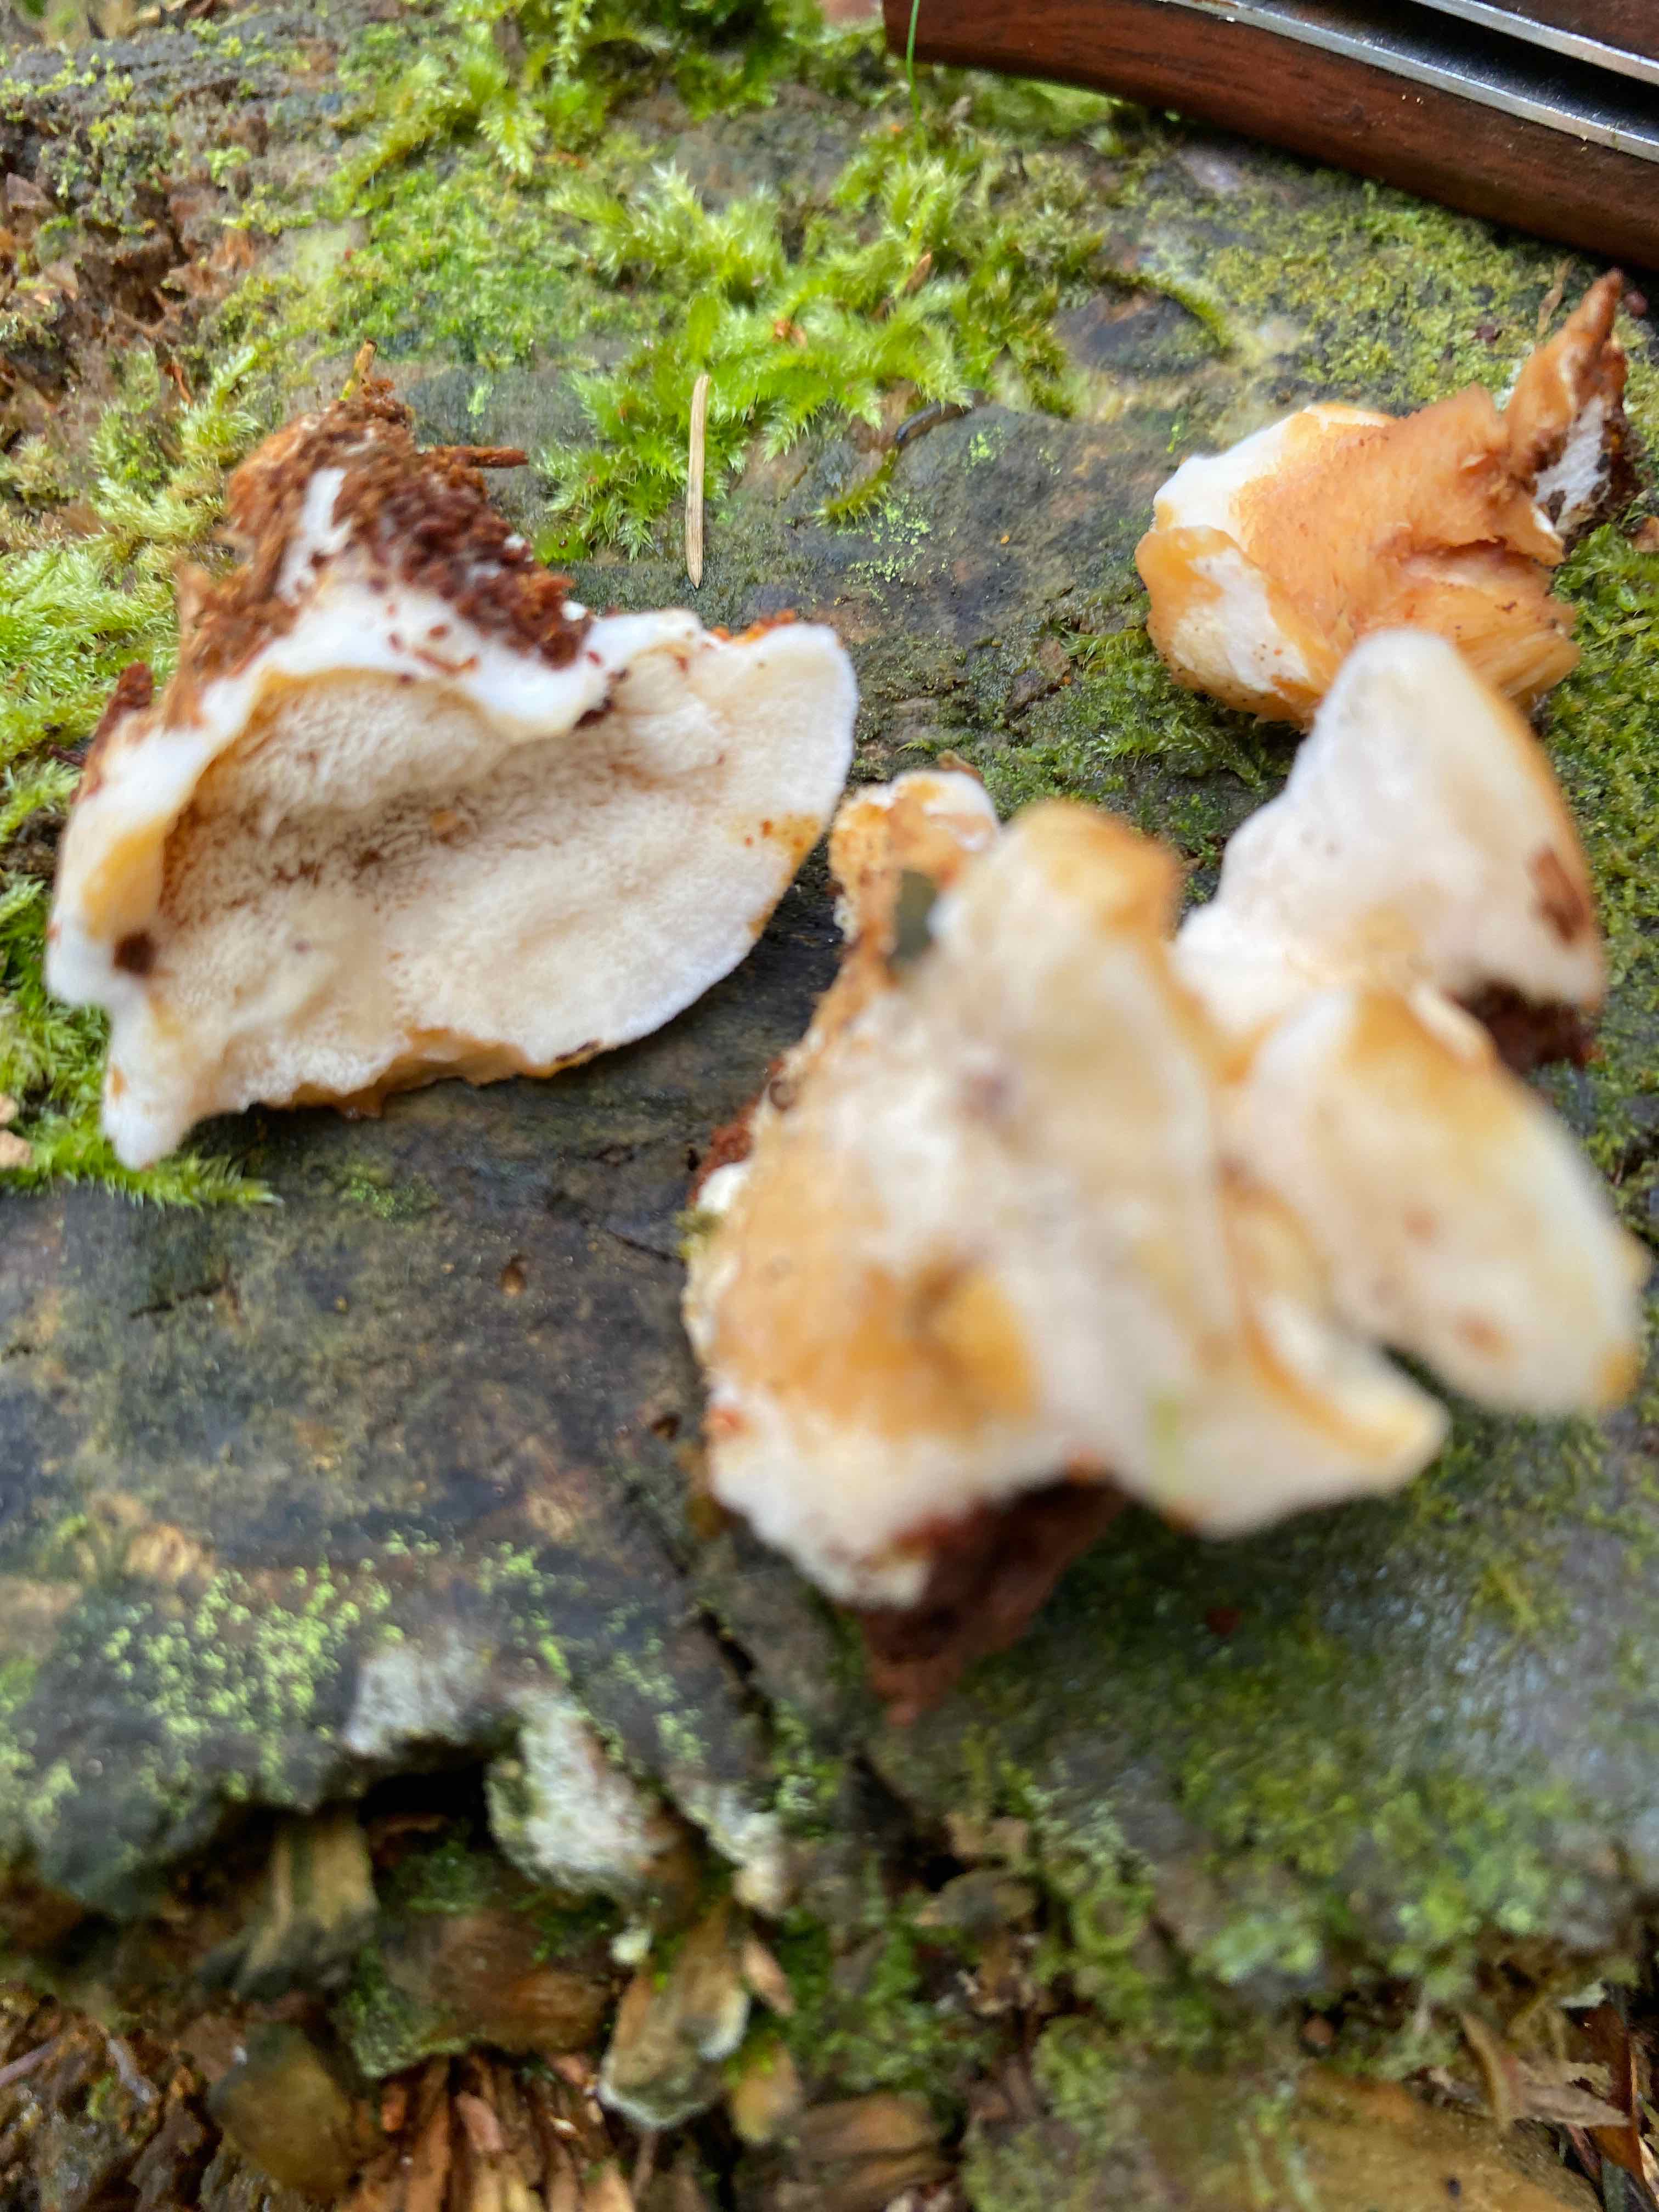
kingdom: Fungi
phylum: Basidiomycota
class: Agaricomycetes
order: Polyporales
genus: Fuscopostia
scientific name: Fuscopostia fragilis
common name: brunende kødporesvamp
